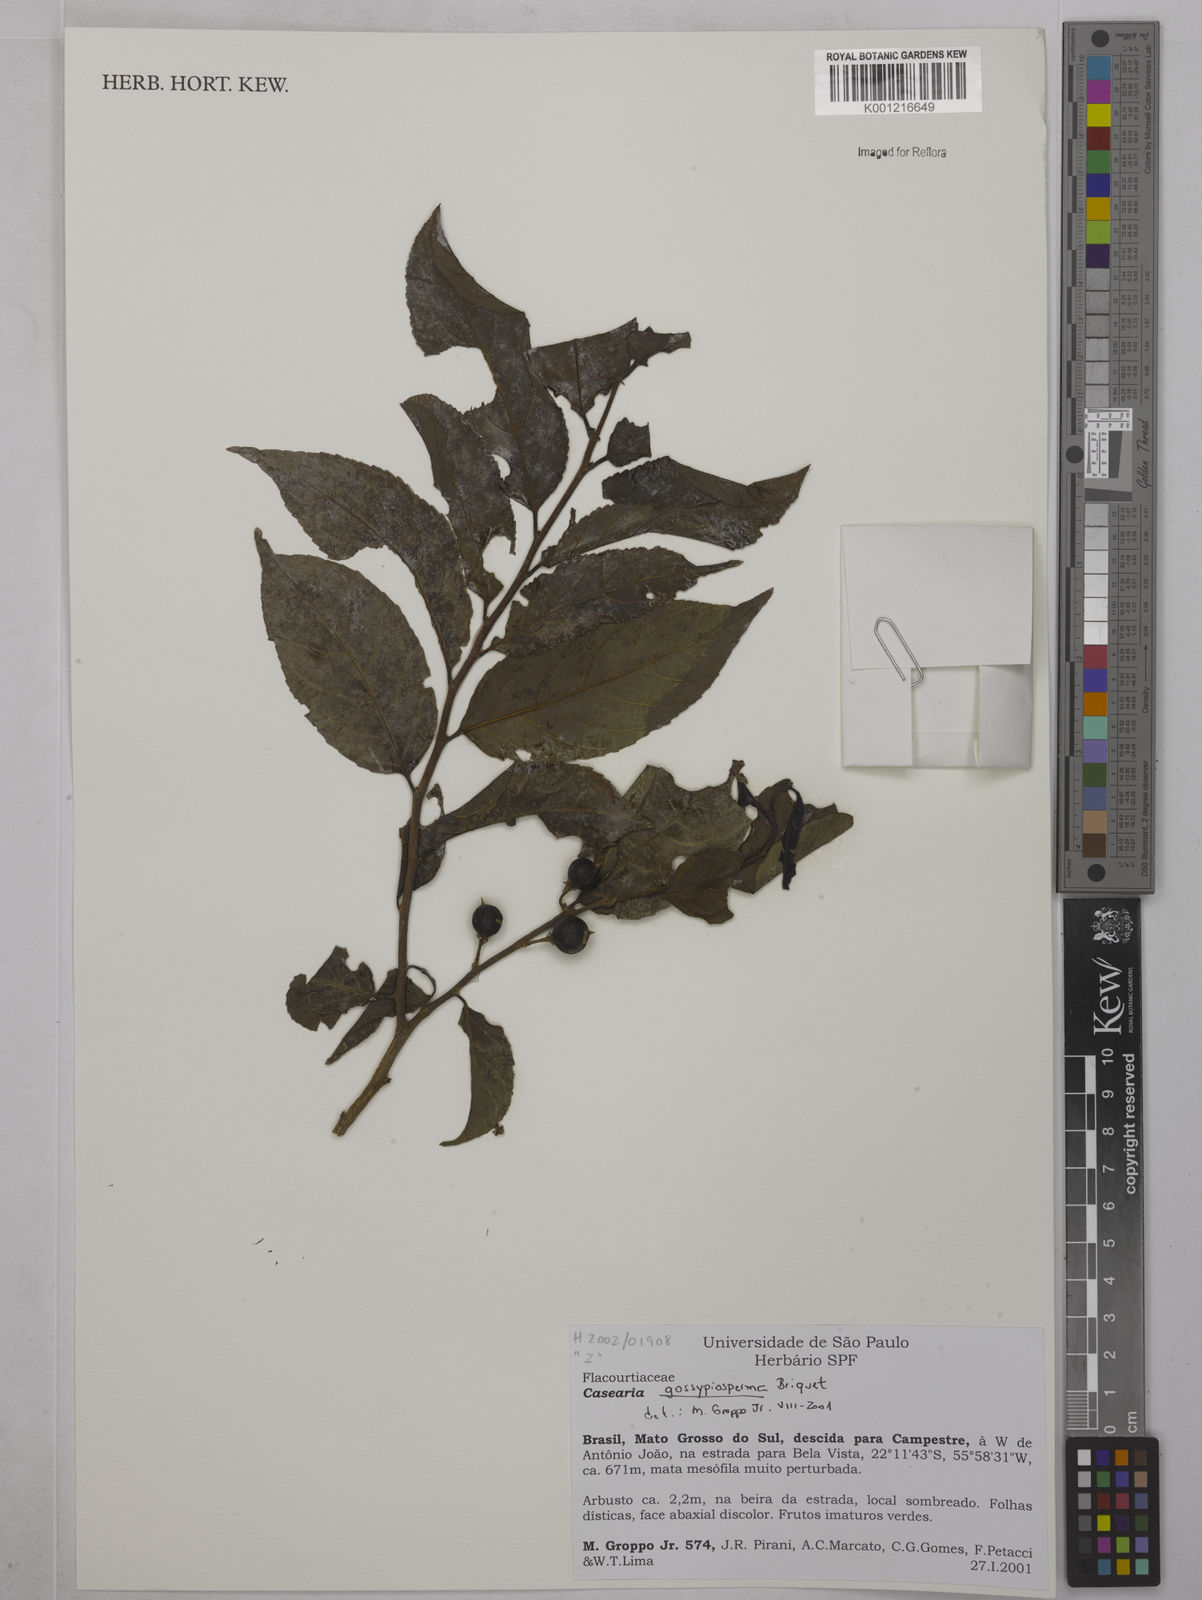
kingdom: Plantae
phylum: Tracheophyta
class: Magnoliopsida
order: Malpighiales
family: Salicaceae
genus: Casearia
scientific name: Casearia gossypiosperma
